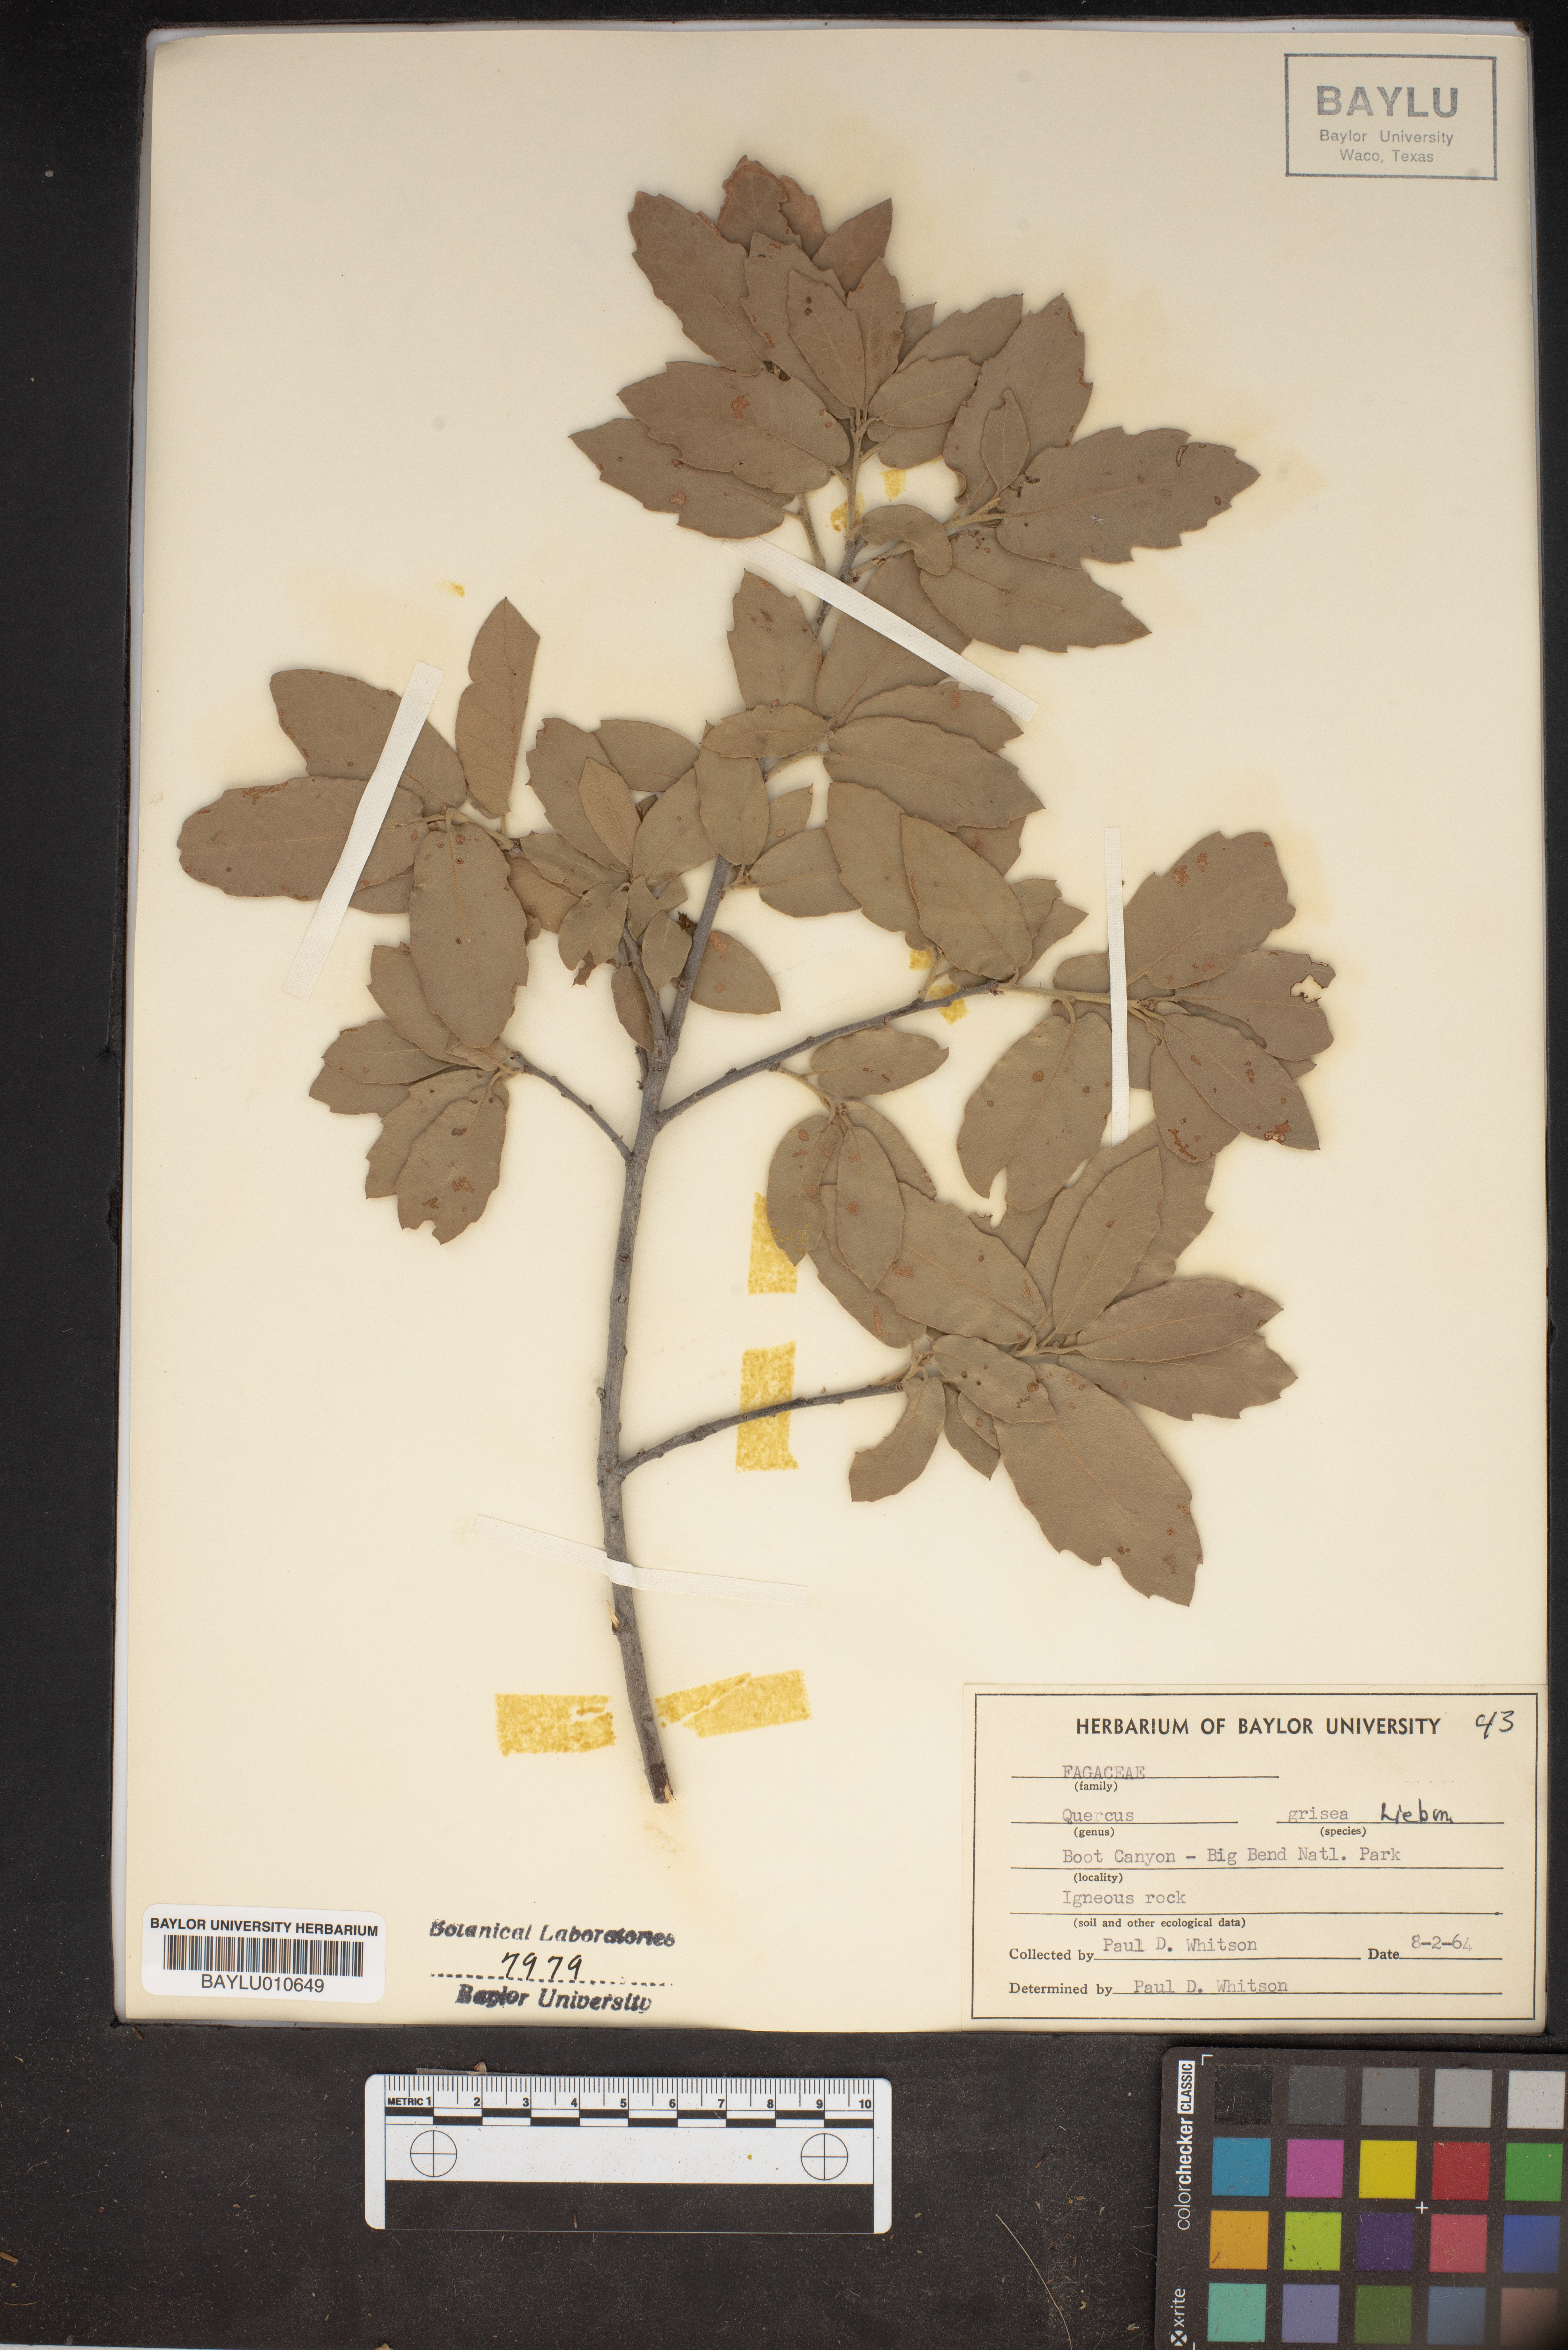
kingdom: Plantae
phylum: Tracheophyta
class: Magnoliopsida
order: Fagales
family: Fagaceae
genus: Quercus
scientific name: Quercus grisea
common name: Gray oak
